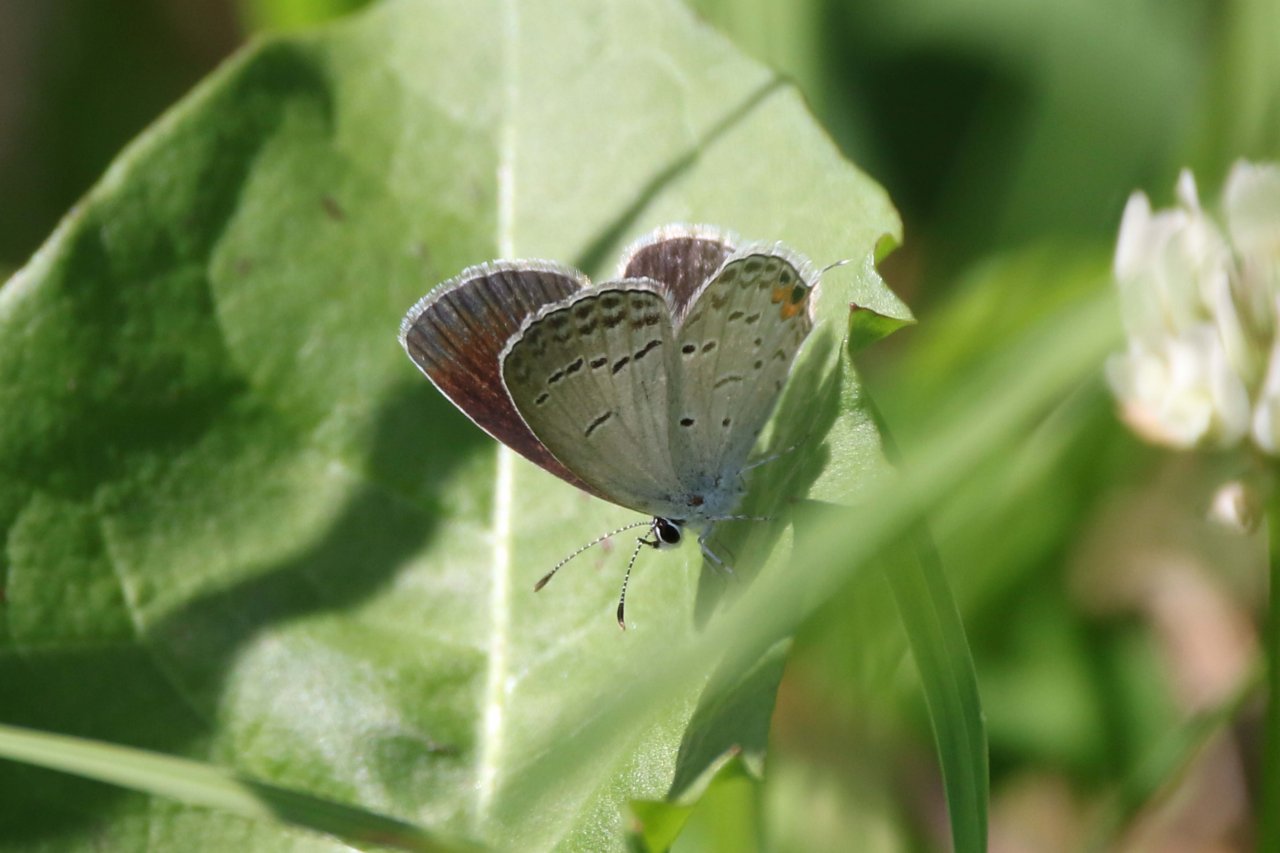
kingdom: Animalia
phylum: Arthropoda
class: Insecta
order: Lepidoptera
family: Lycaenidae
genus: Elkalyce
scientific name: Elkalyce comyntas
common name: Eastern Tailed-Blue
